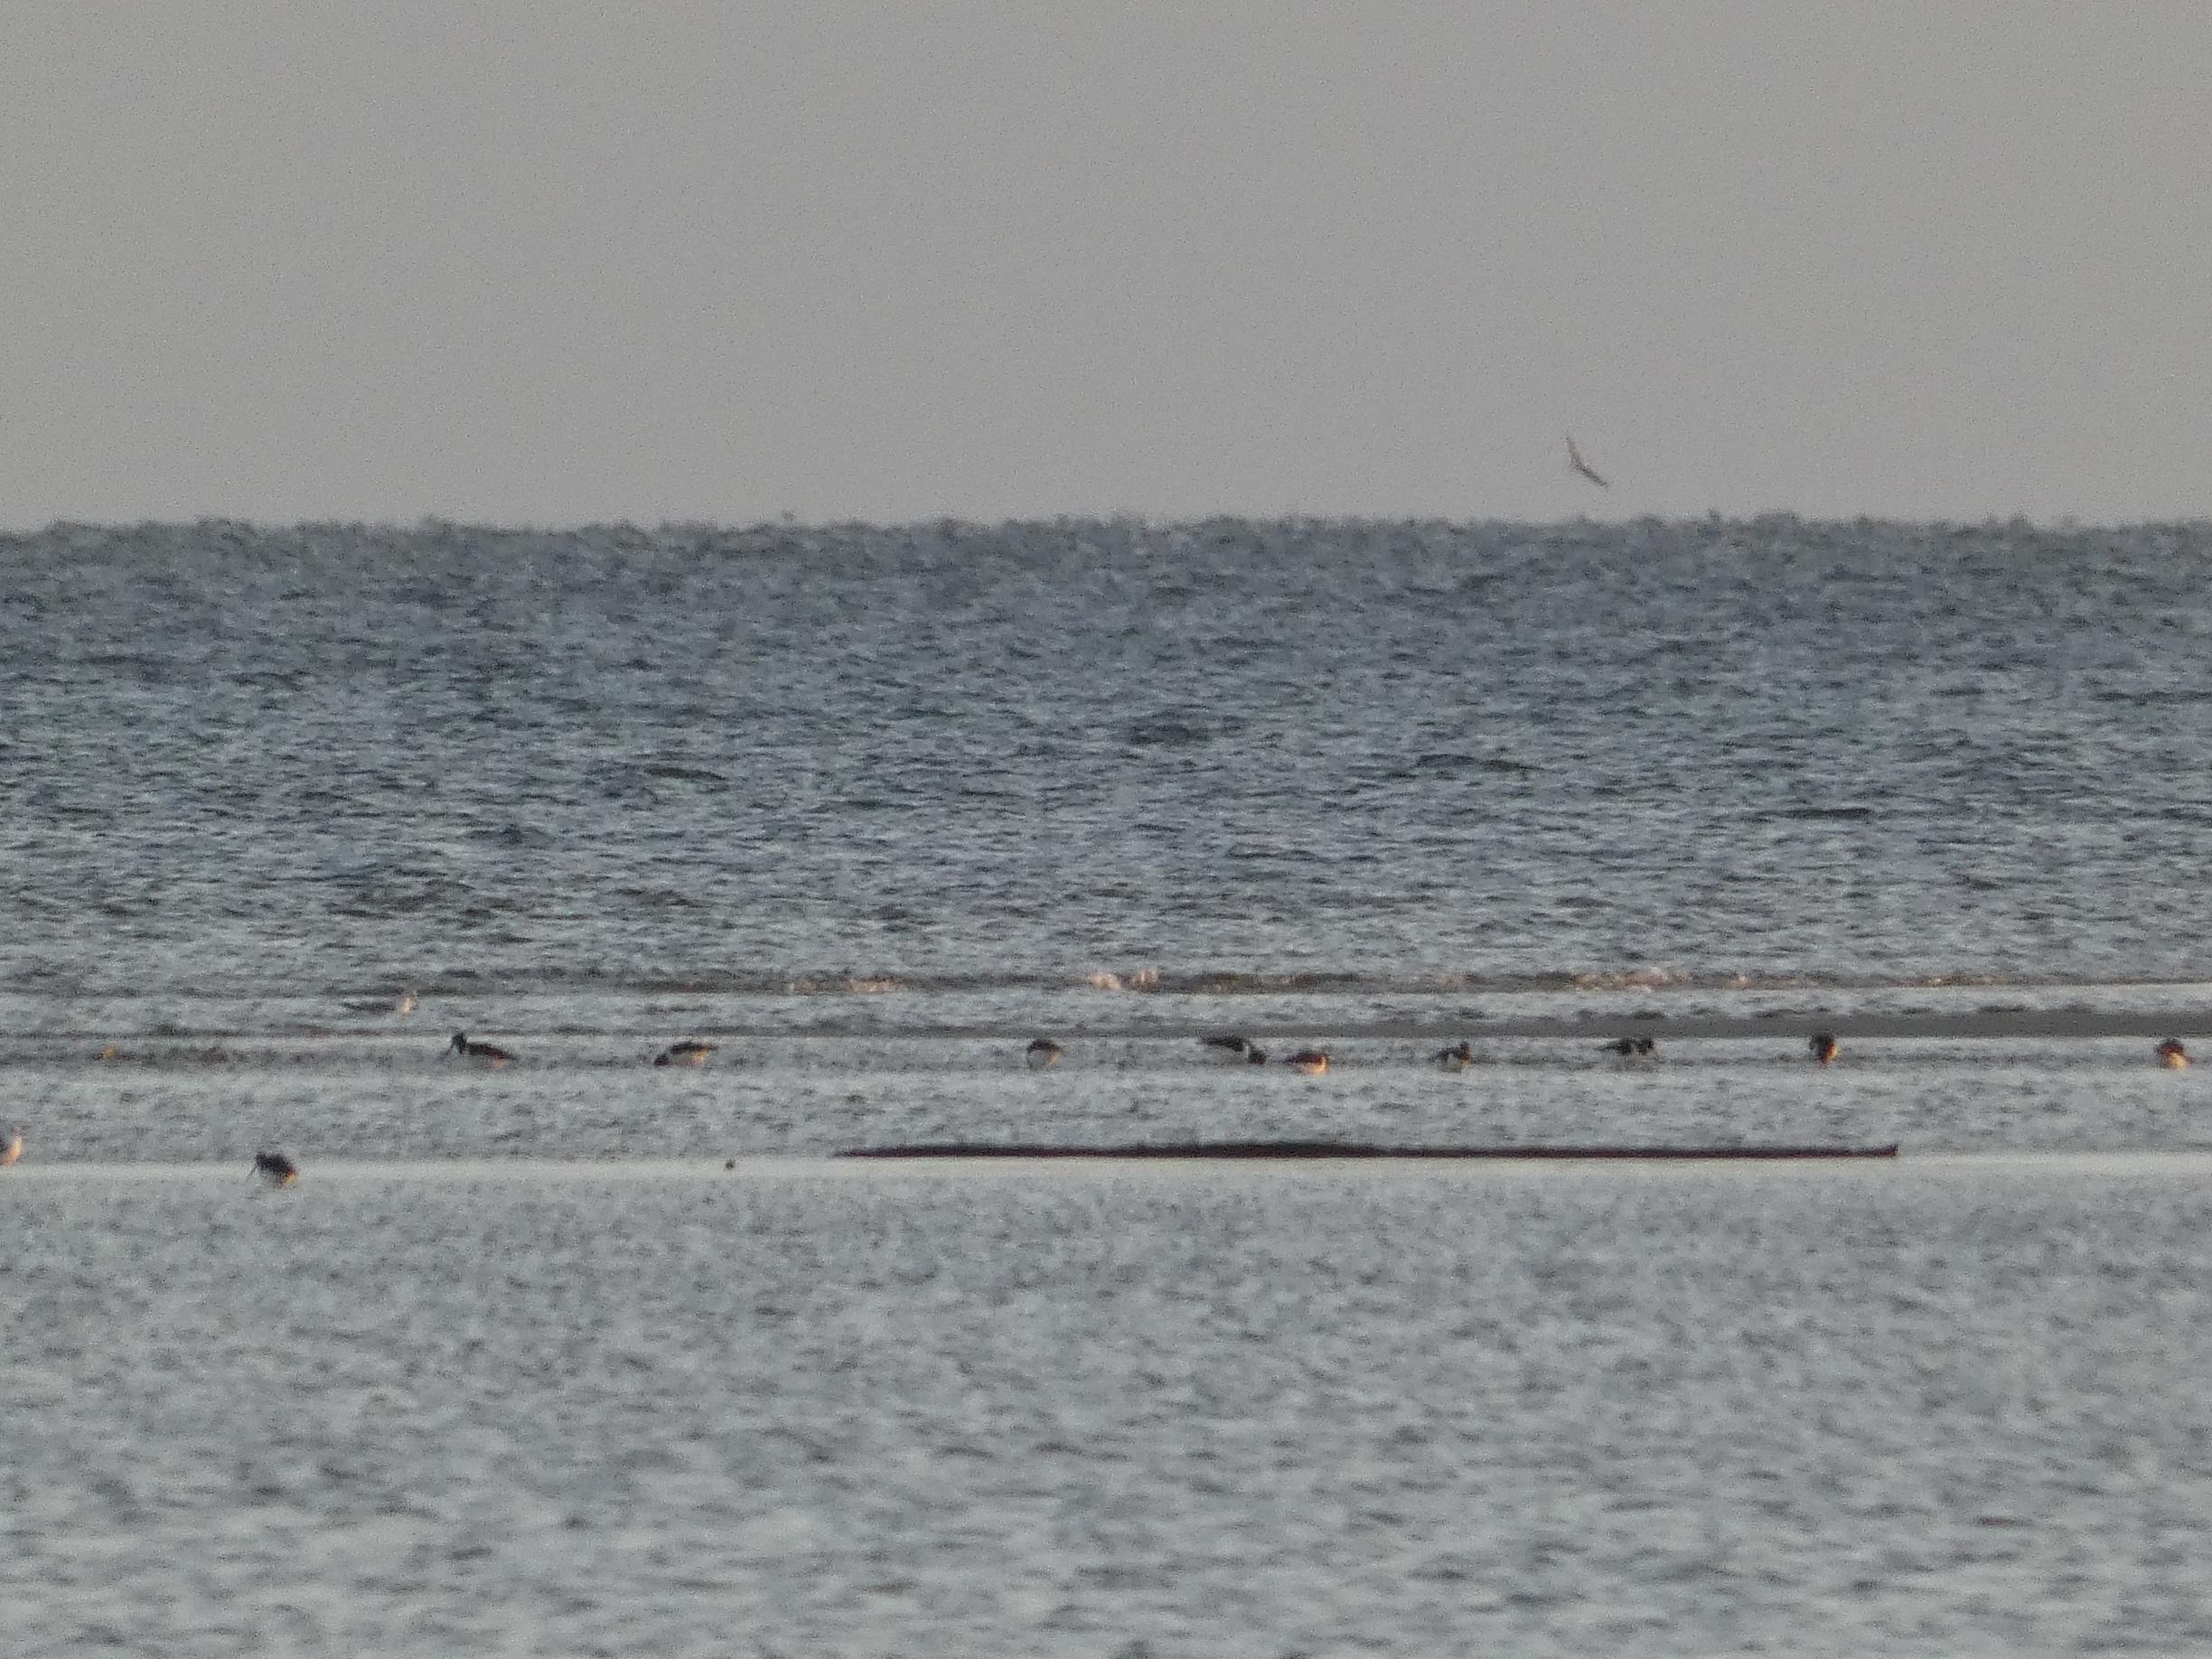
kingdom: Animalia
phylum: Chordata
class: Aves
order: Charadriiformes
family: Haematopodidae
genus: Haematopus
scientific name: Haematopus ostralegus
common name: Strandskade
